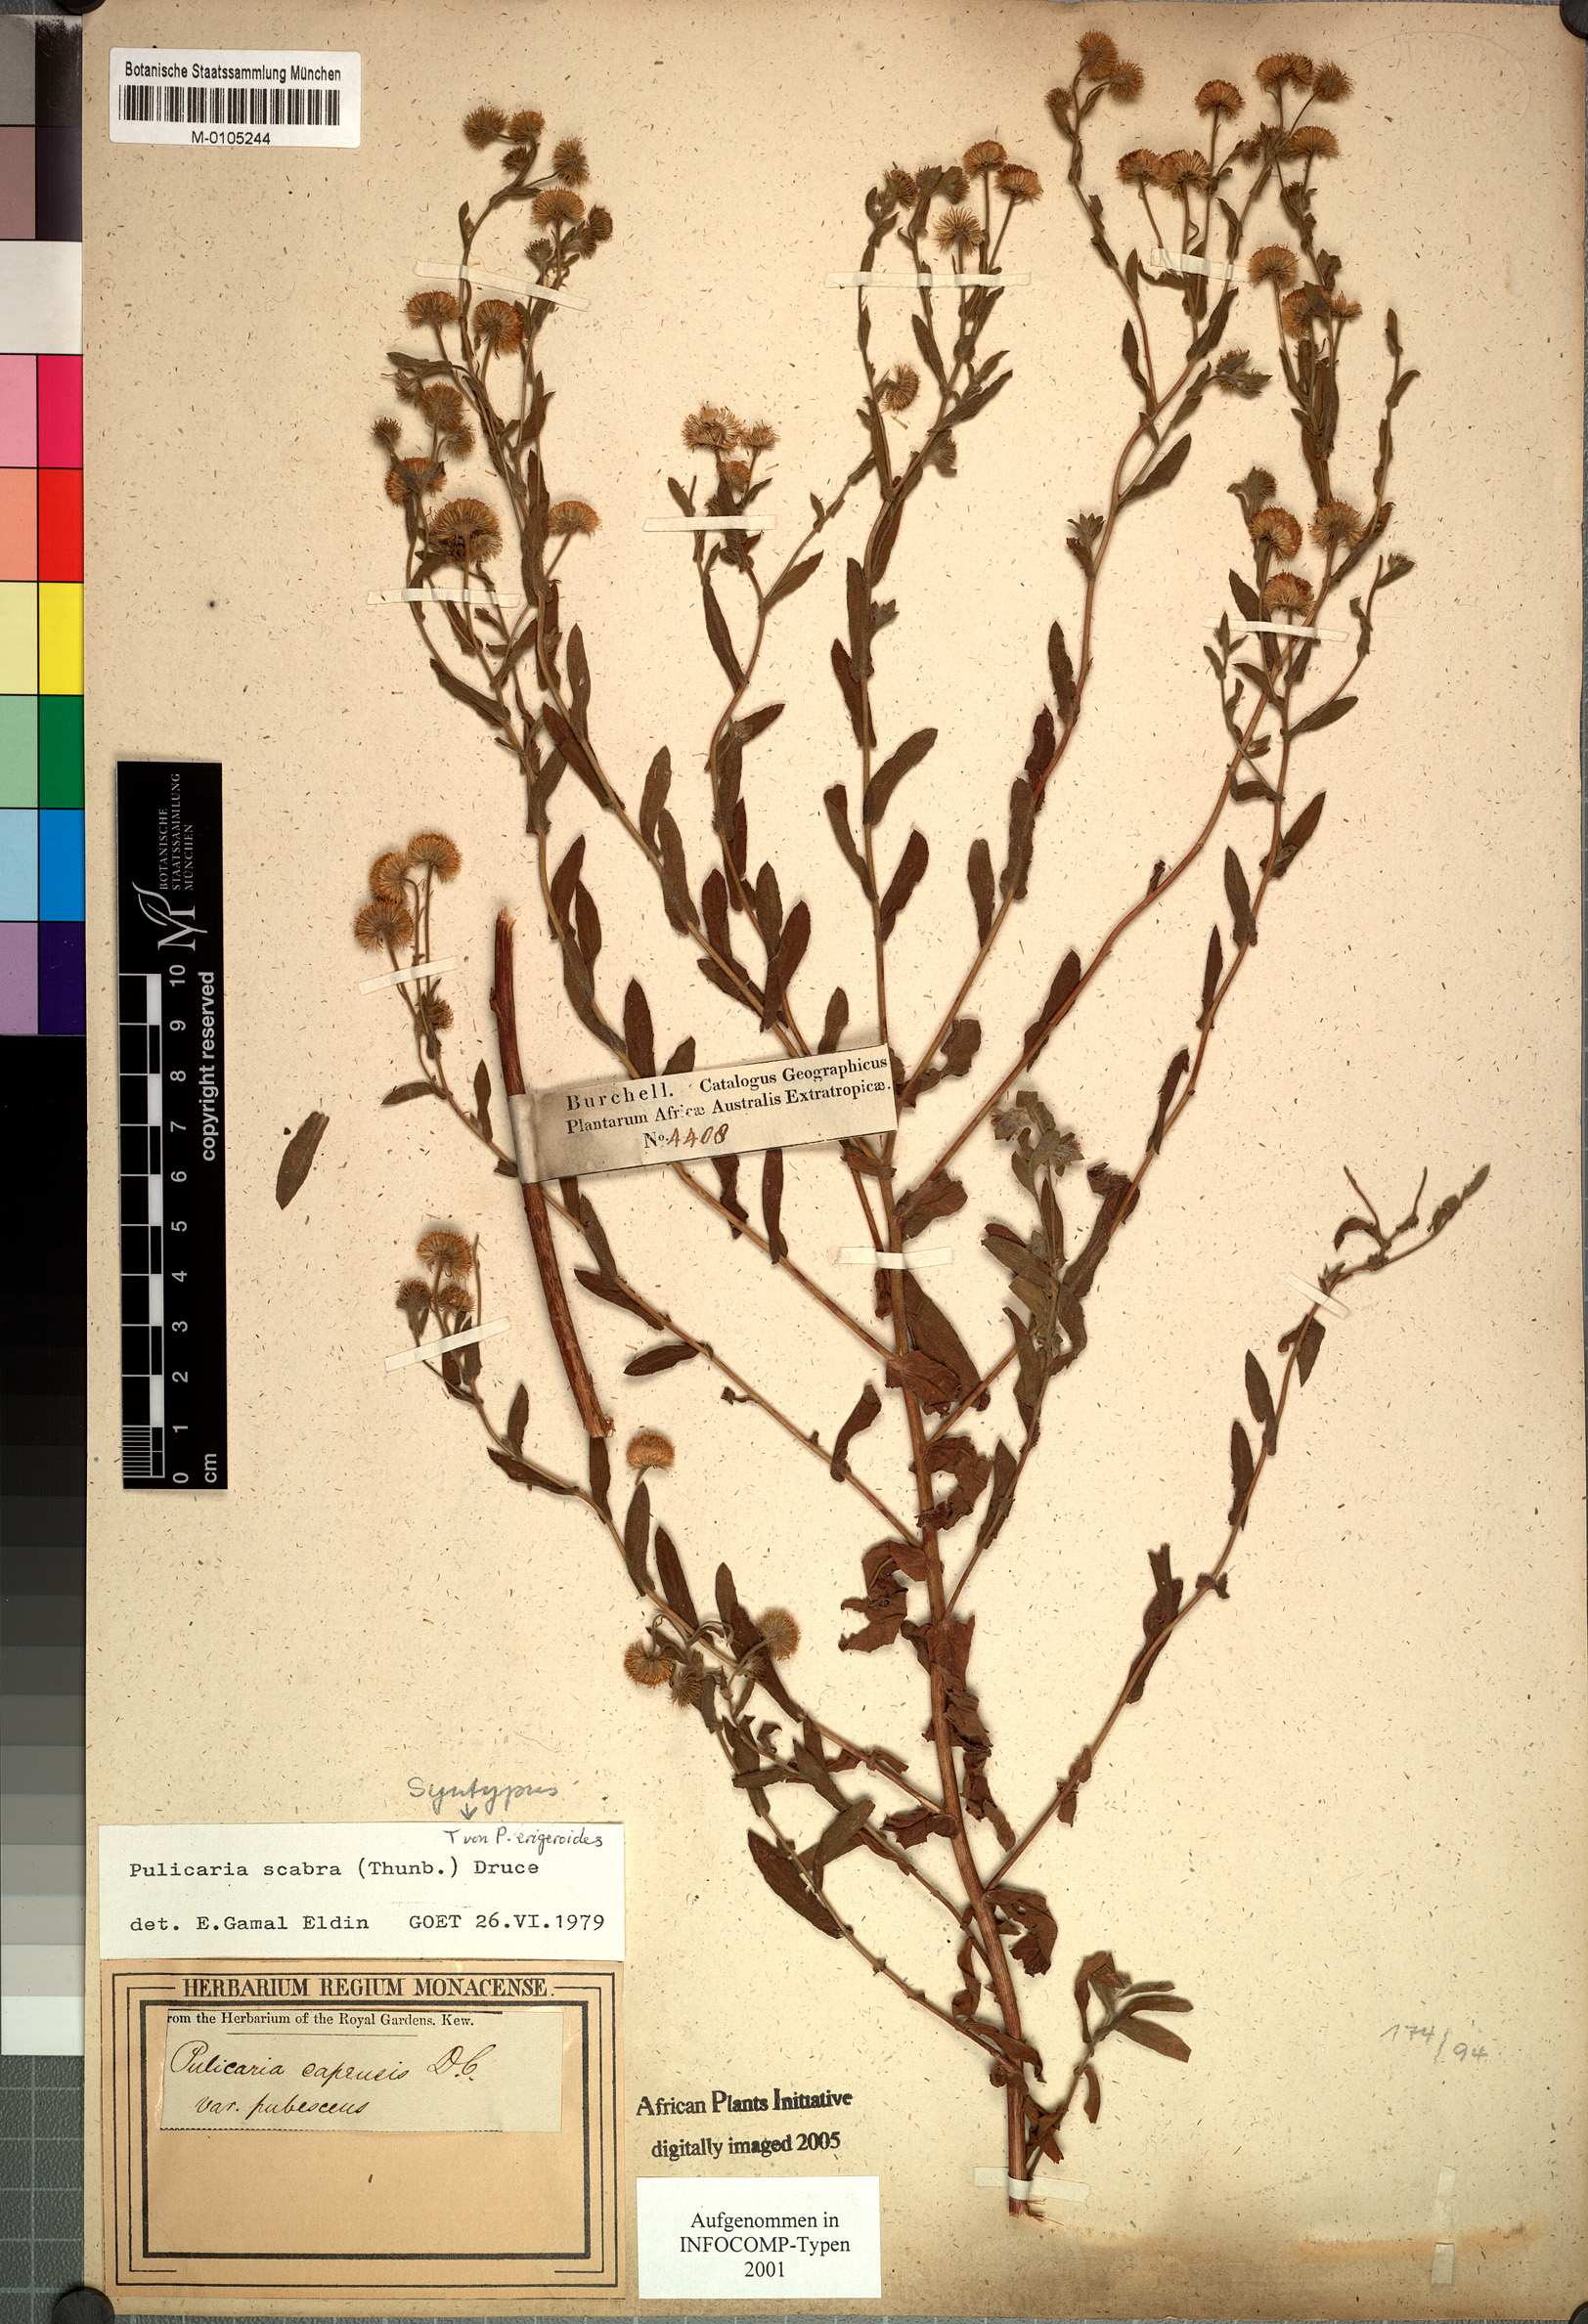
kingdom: Plantae
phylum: Tracheophyta
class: Magnoliopsida
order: Asterales
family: Asteraceae
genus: Pulicaria
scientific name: Pulicaria scabra
